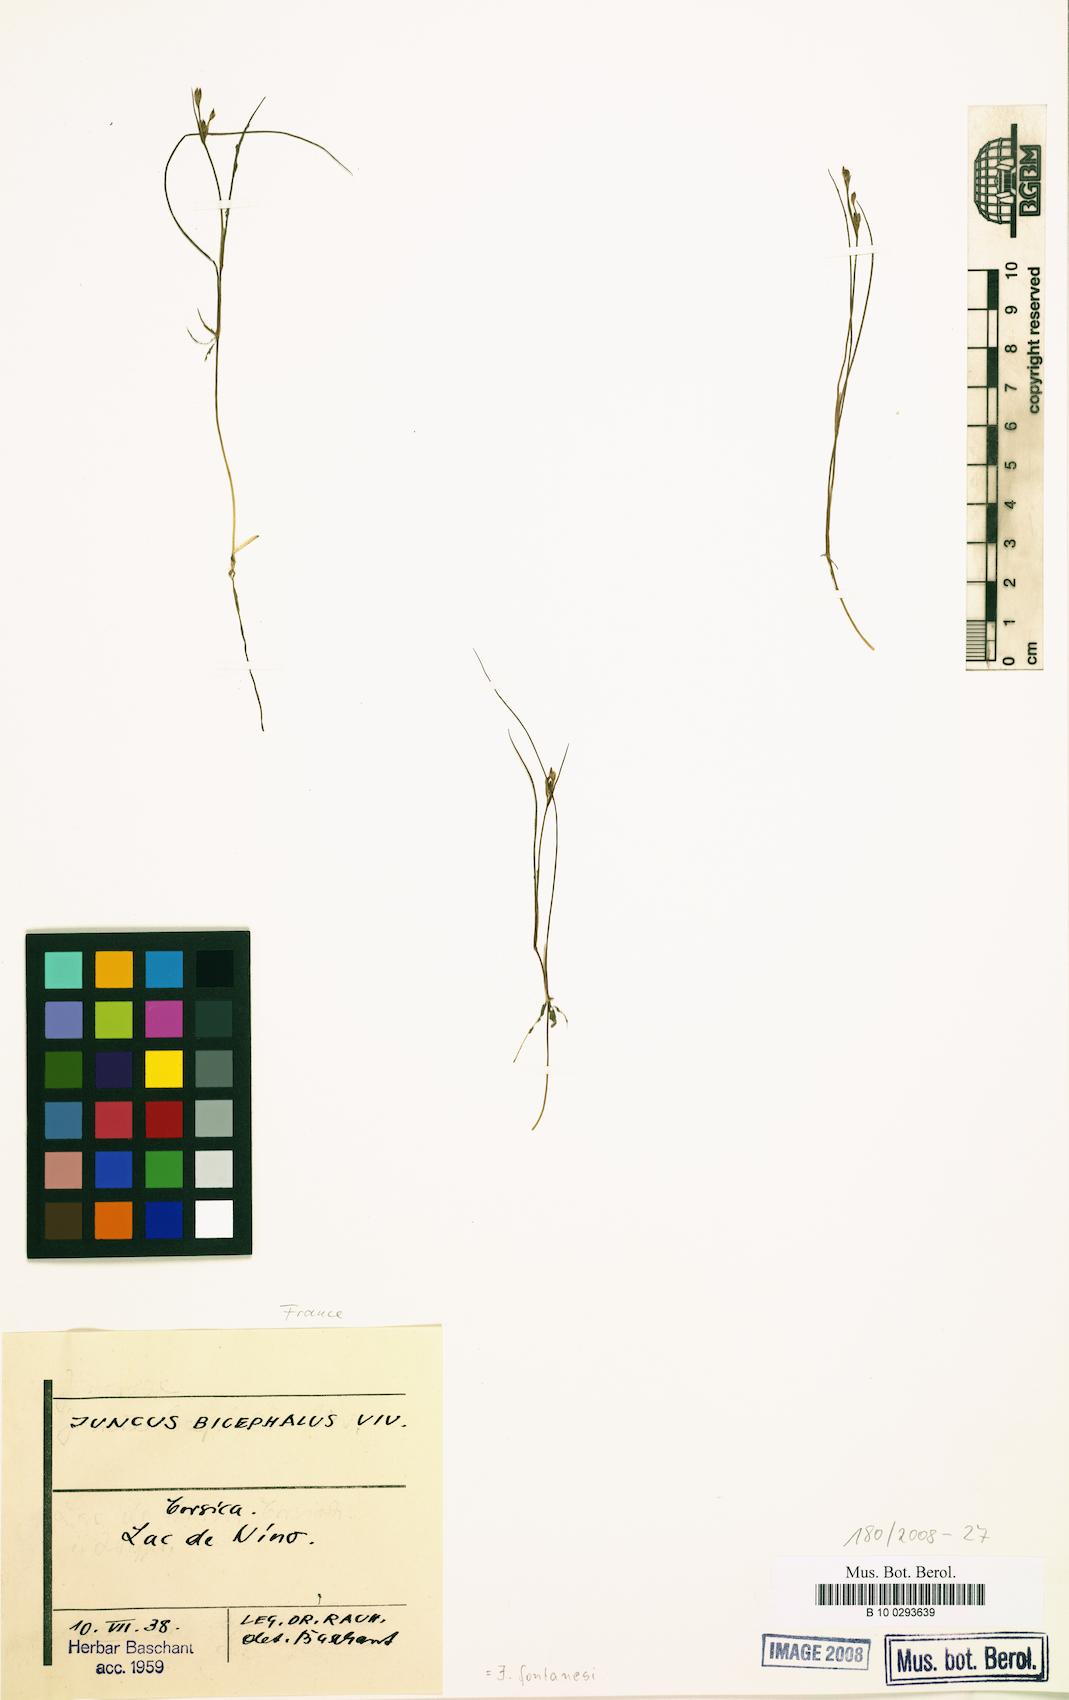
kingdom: Plantae
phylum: Tracheophyta
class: Liliopsida
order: Poales
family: Juncaceae
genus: Juncus
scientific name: Juncus fontanesii
